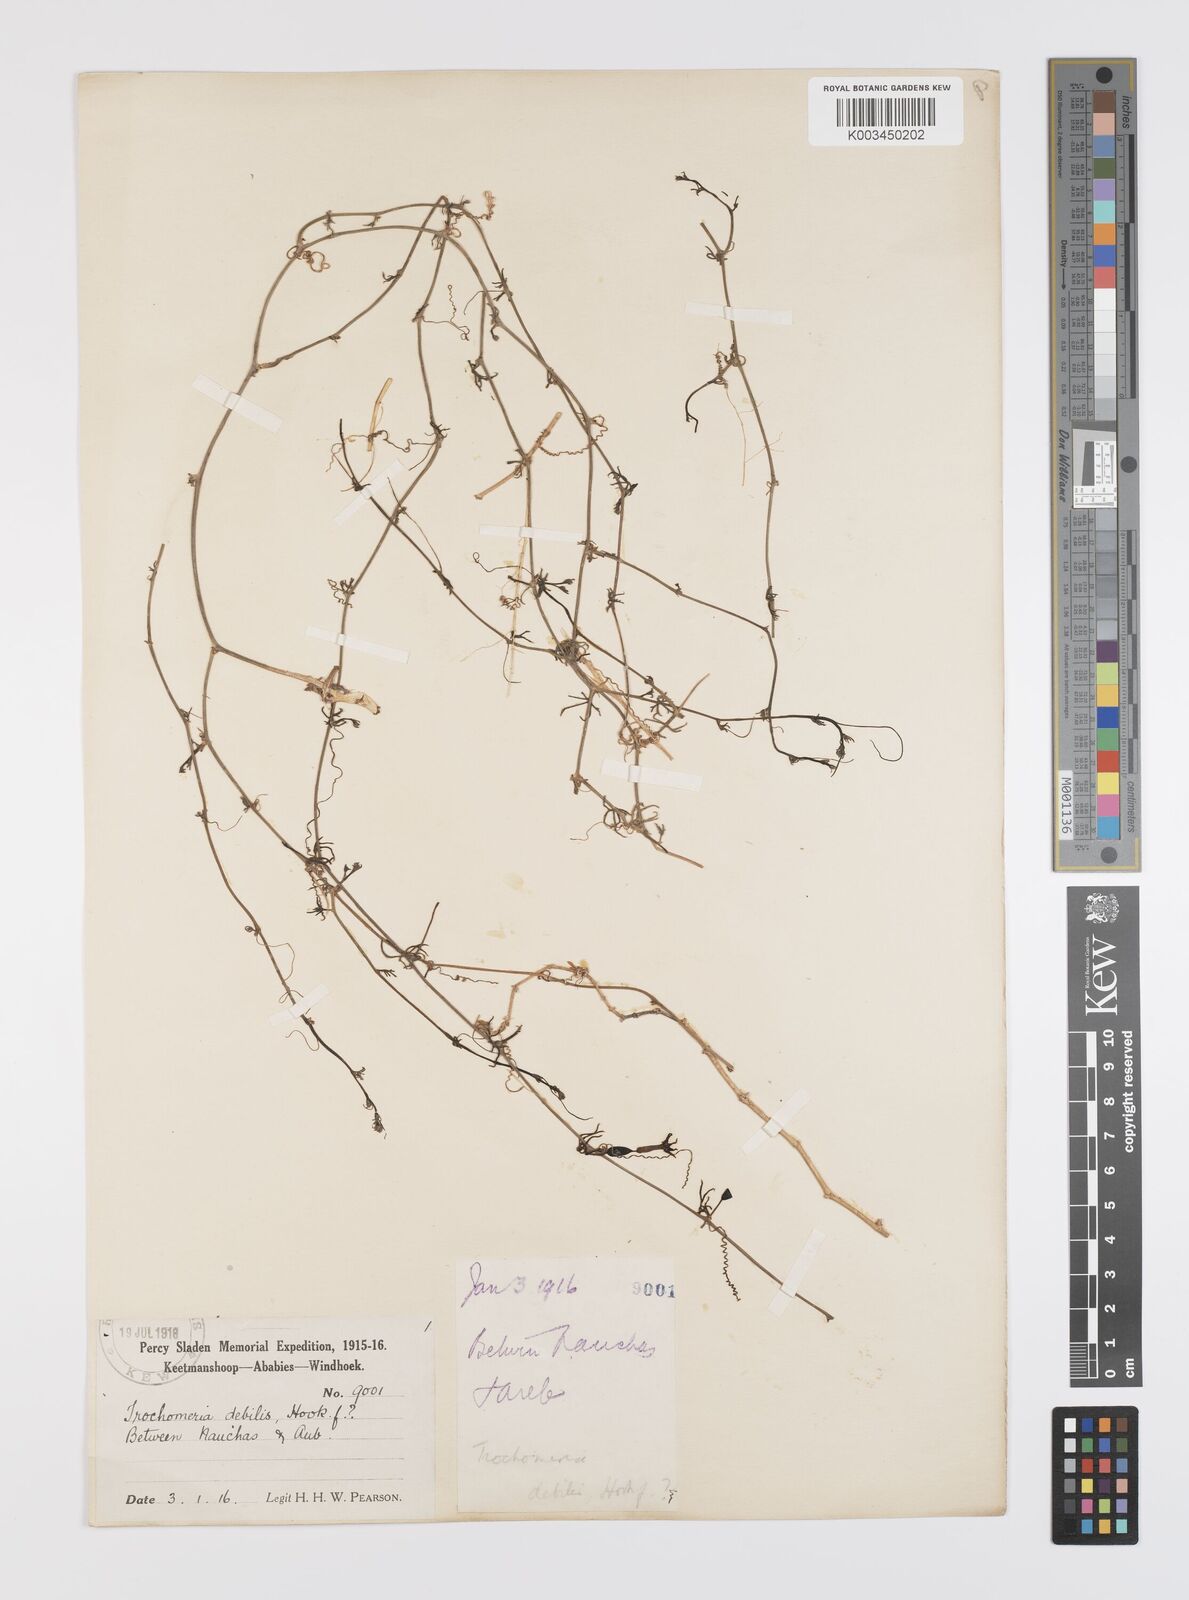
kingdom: Plantae
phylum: Tracheophyta
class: Magnoliopsida
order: Cucurbitales
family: Cucurbitaceae
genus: Trochomeria
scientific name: Trochomeria debilis
